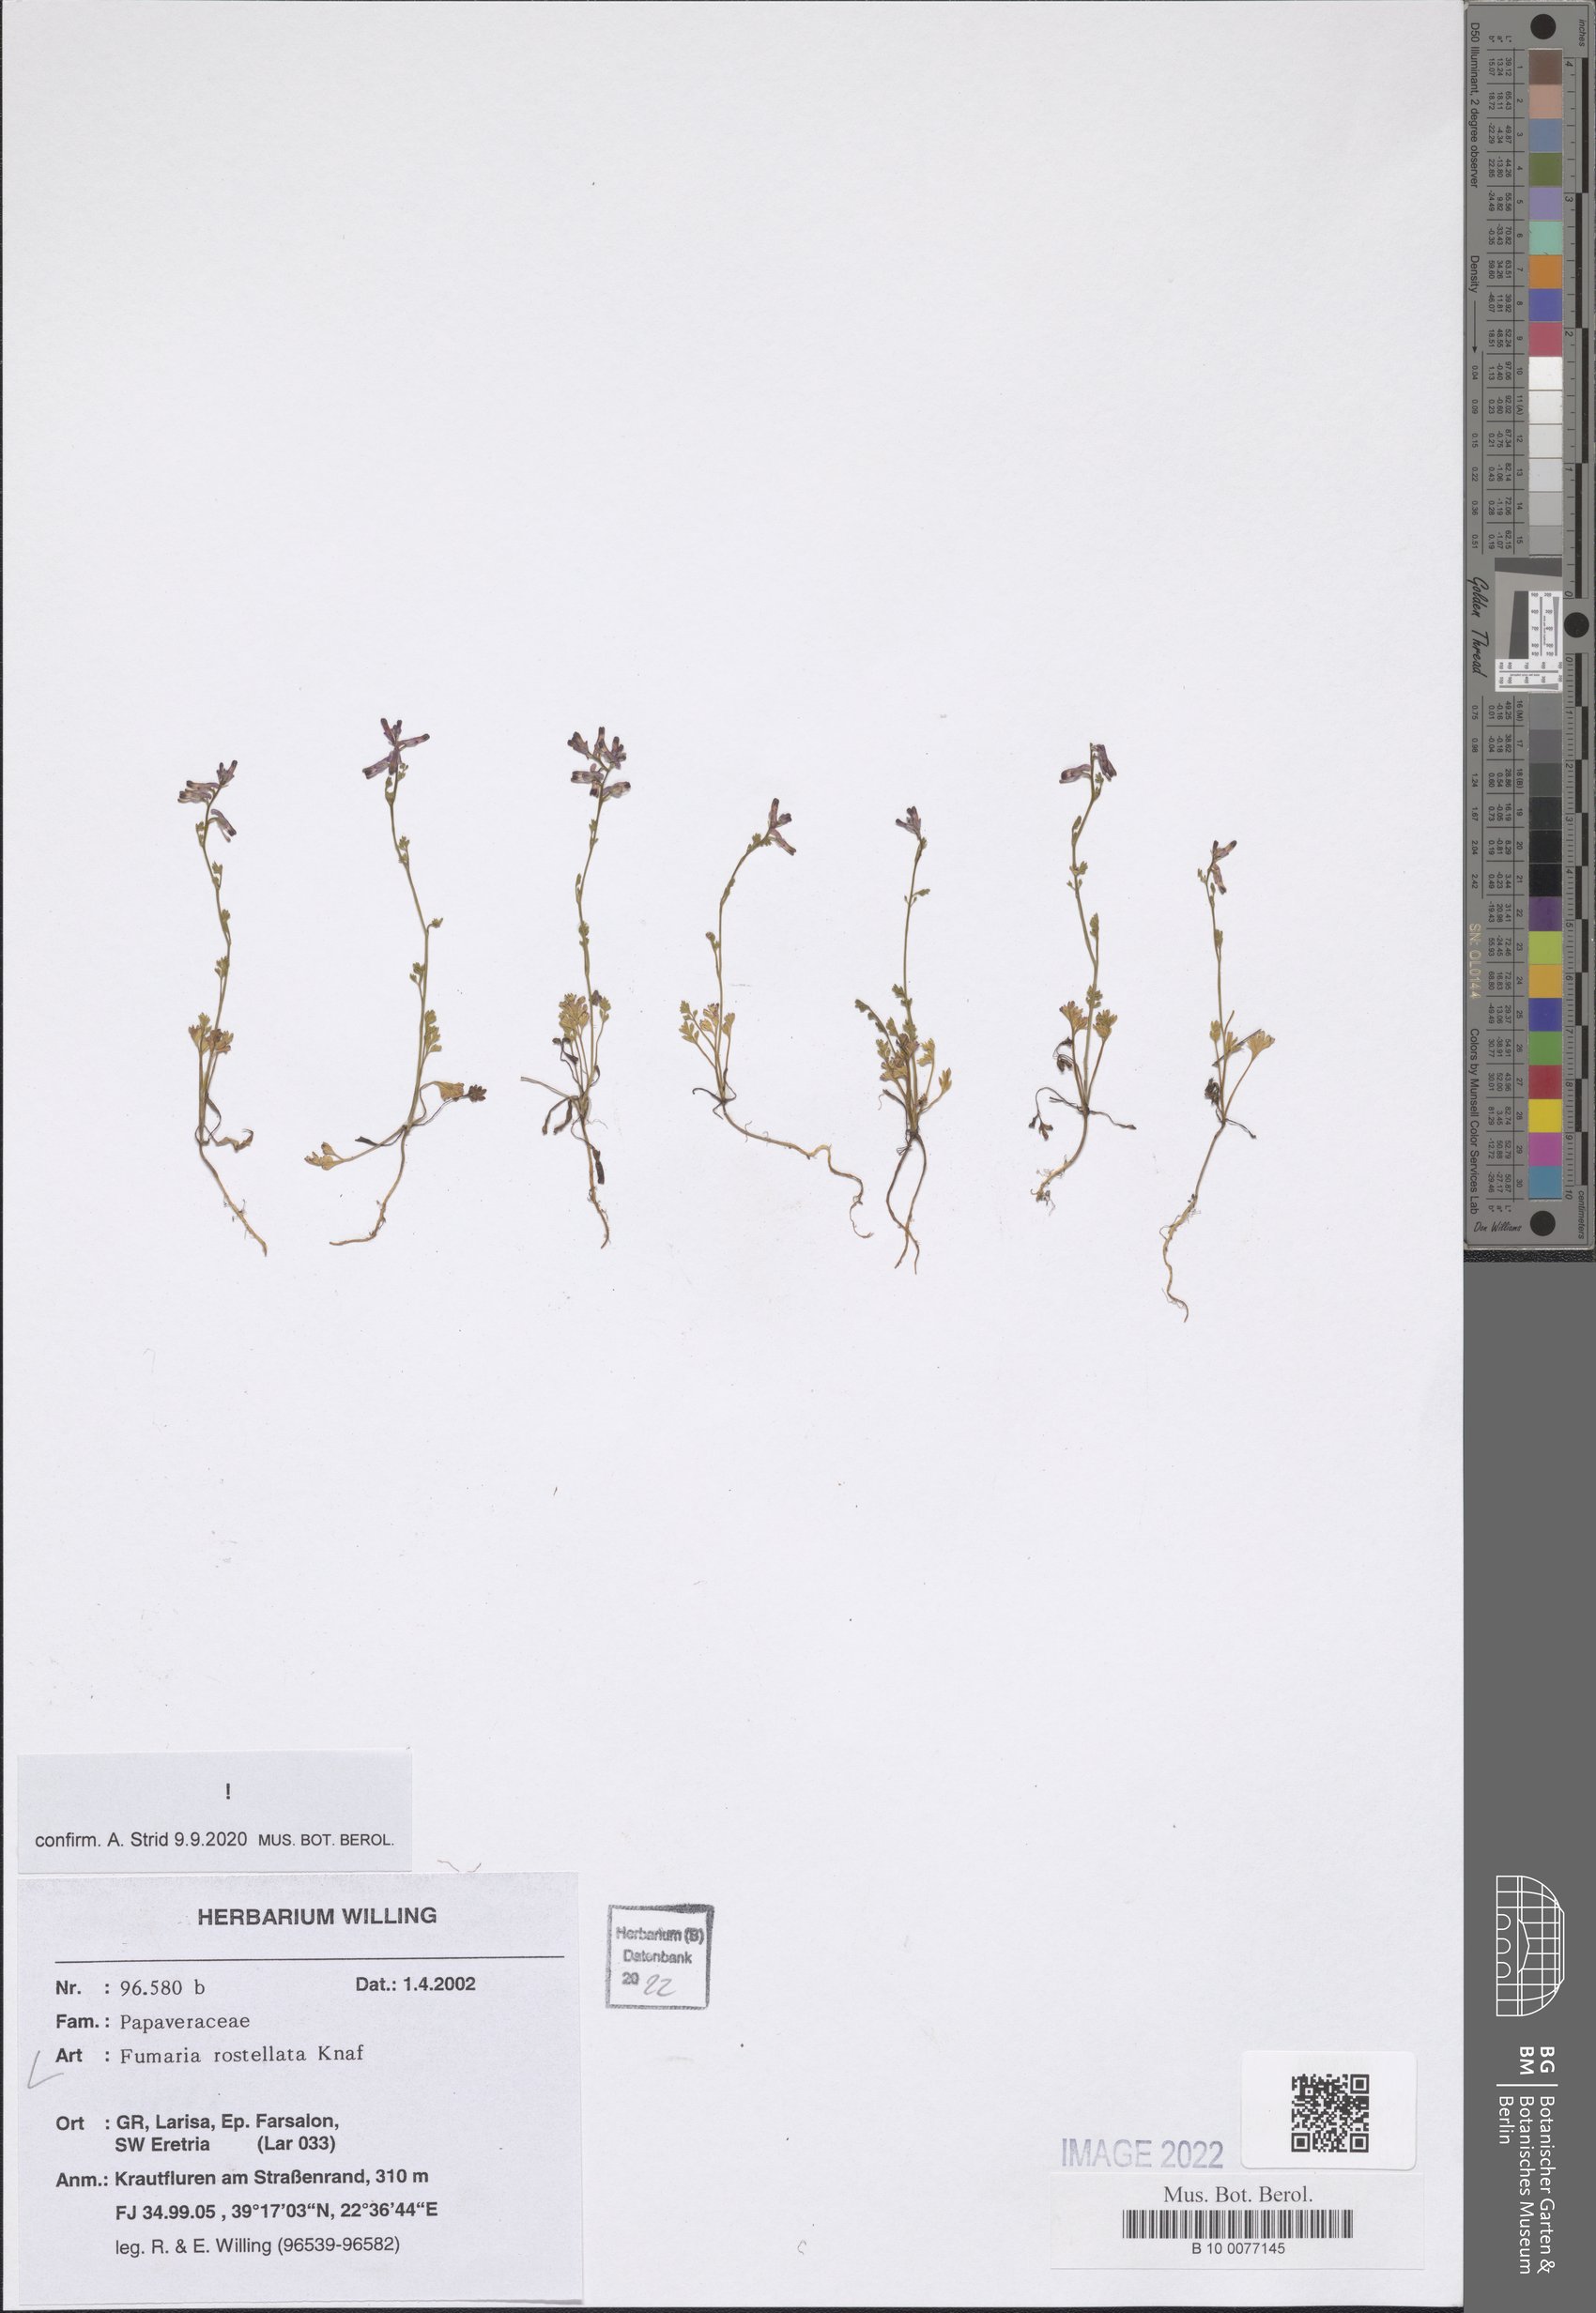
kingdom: Plantae
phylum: Tracheophyta
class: Magnoliopsida
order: Ranunculales
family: Papaveraceae
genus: Fumaria
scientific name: Fumaria rostellata
